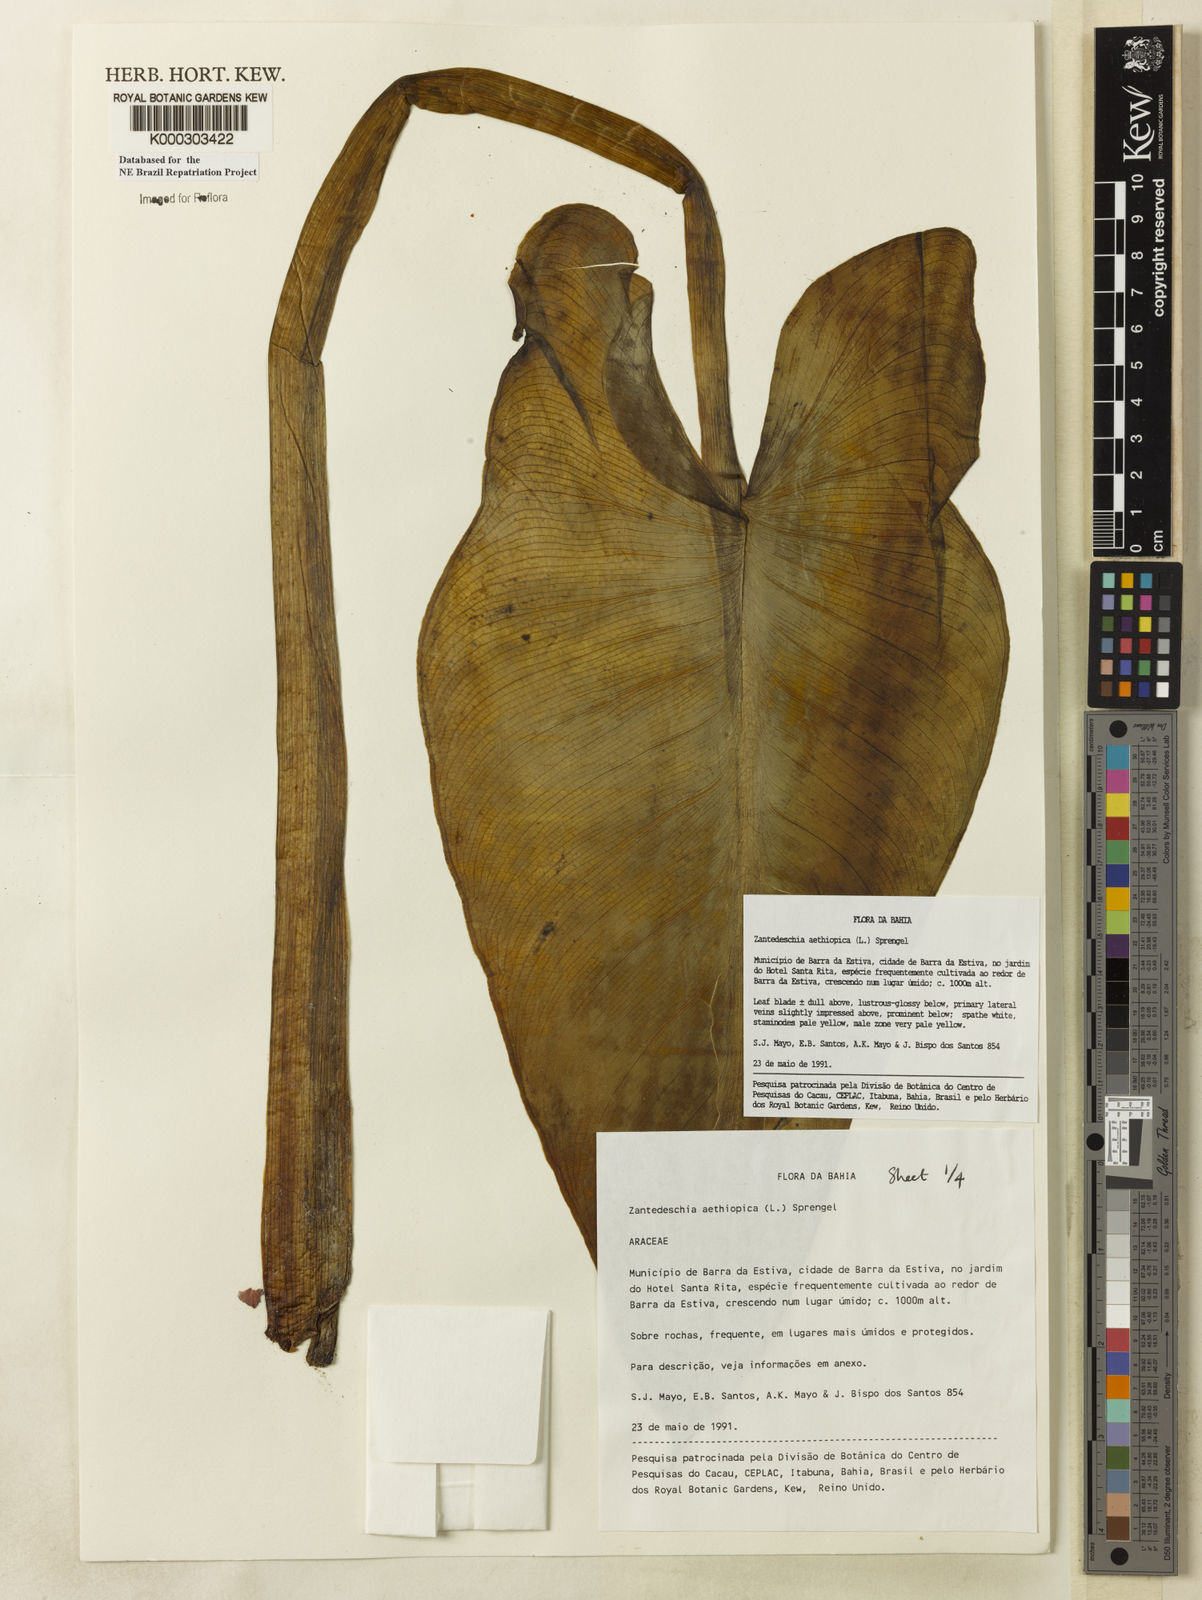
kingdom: Plantae
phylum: Tracheophyta
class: Liliopsida
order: Alismatales
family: Araceae
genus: Zantedeschia
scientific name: Zantedeschia aethiopica
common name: Altar-lily
